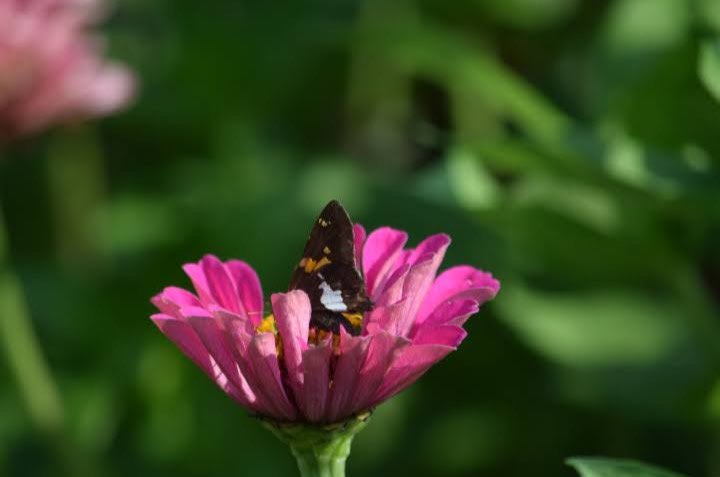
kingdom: Animalia
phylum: Arthropoda
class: Insecta
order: Lepidoptera
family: Hesperiidae
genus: Epargyreus
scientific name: Epargyreus clarus
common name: Silver-spotted Skipper
